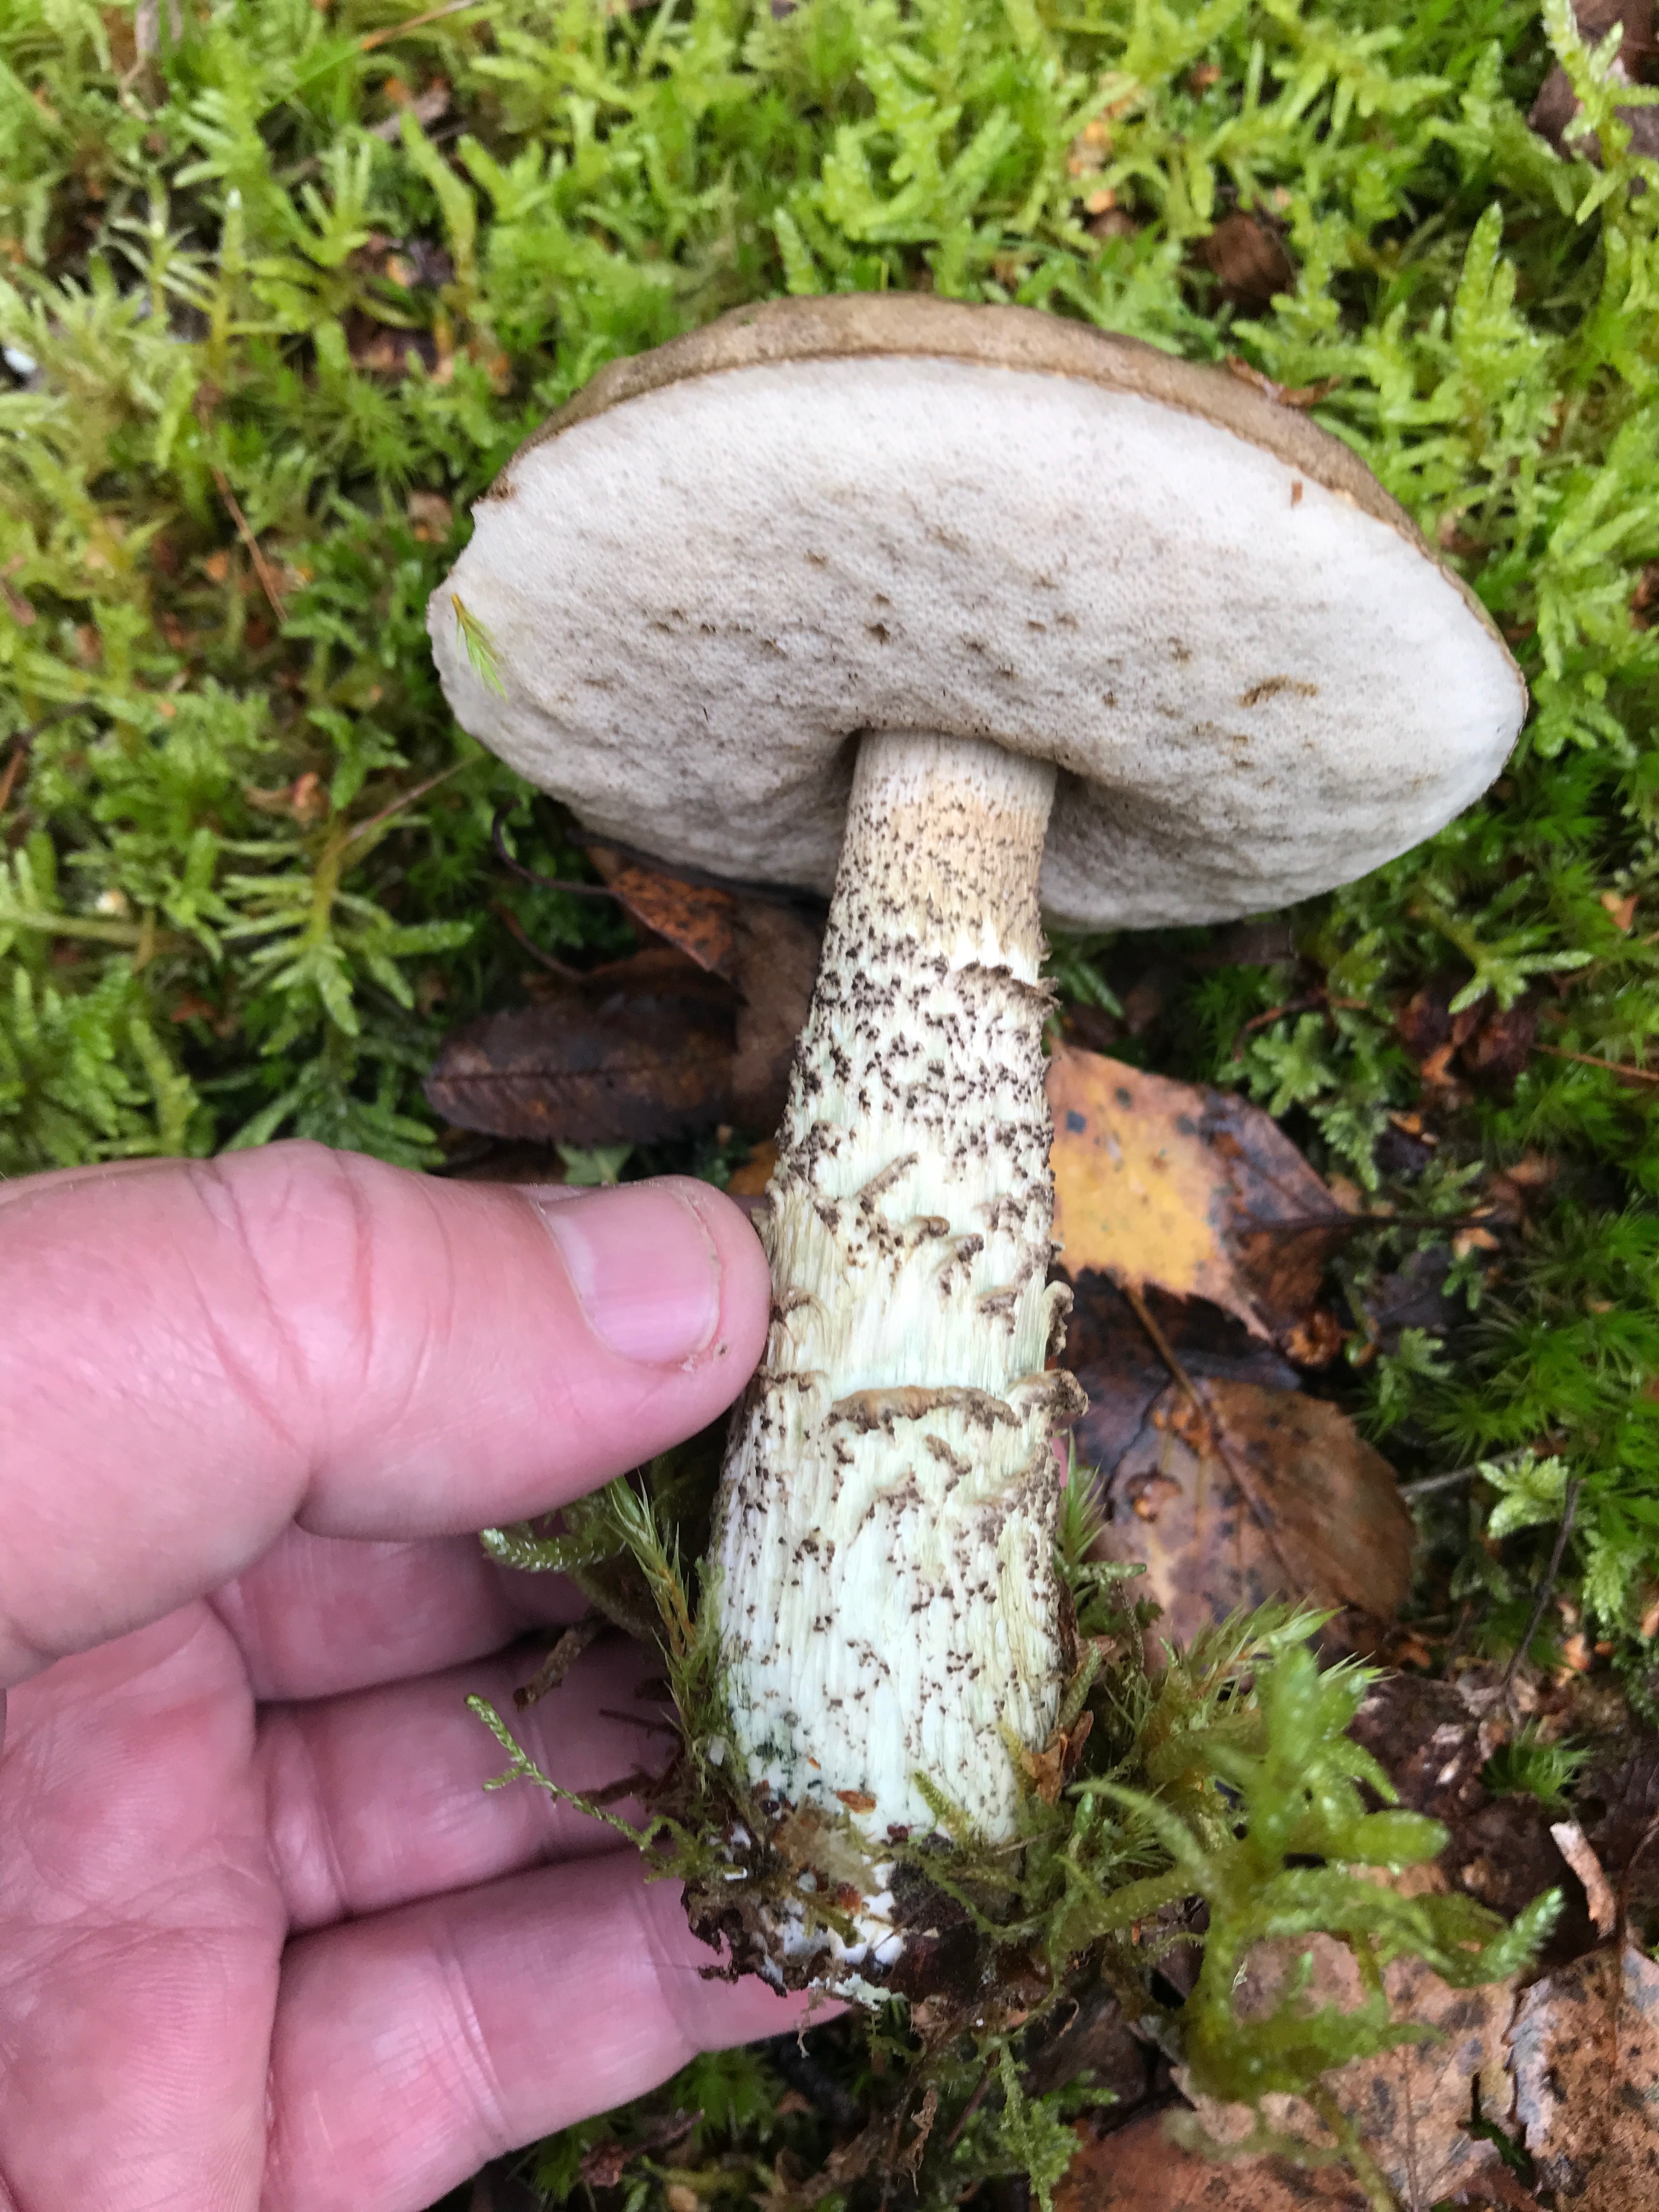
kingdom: Fungi
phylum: Basidiomycota
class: Agaricomycetes
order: Boletales
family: Boletaceae
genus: Leccinum
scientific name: Leccinum variicolor
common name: flammet skælrørhat
